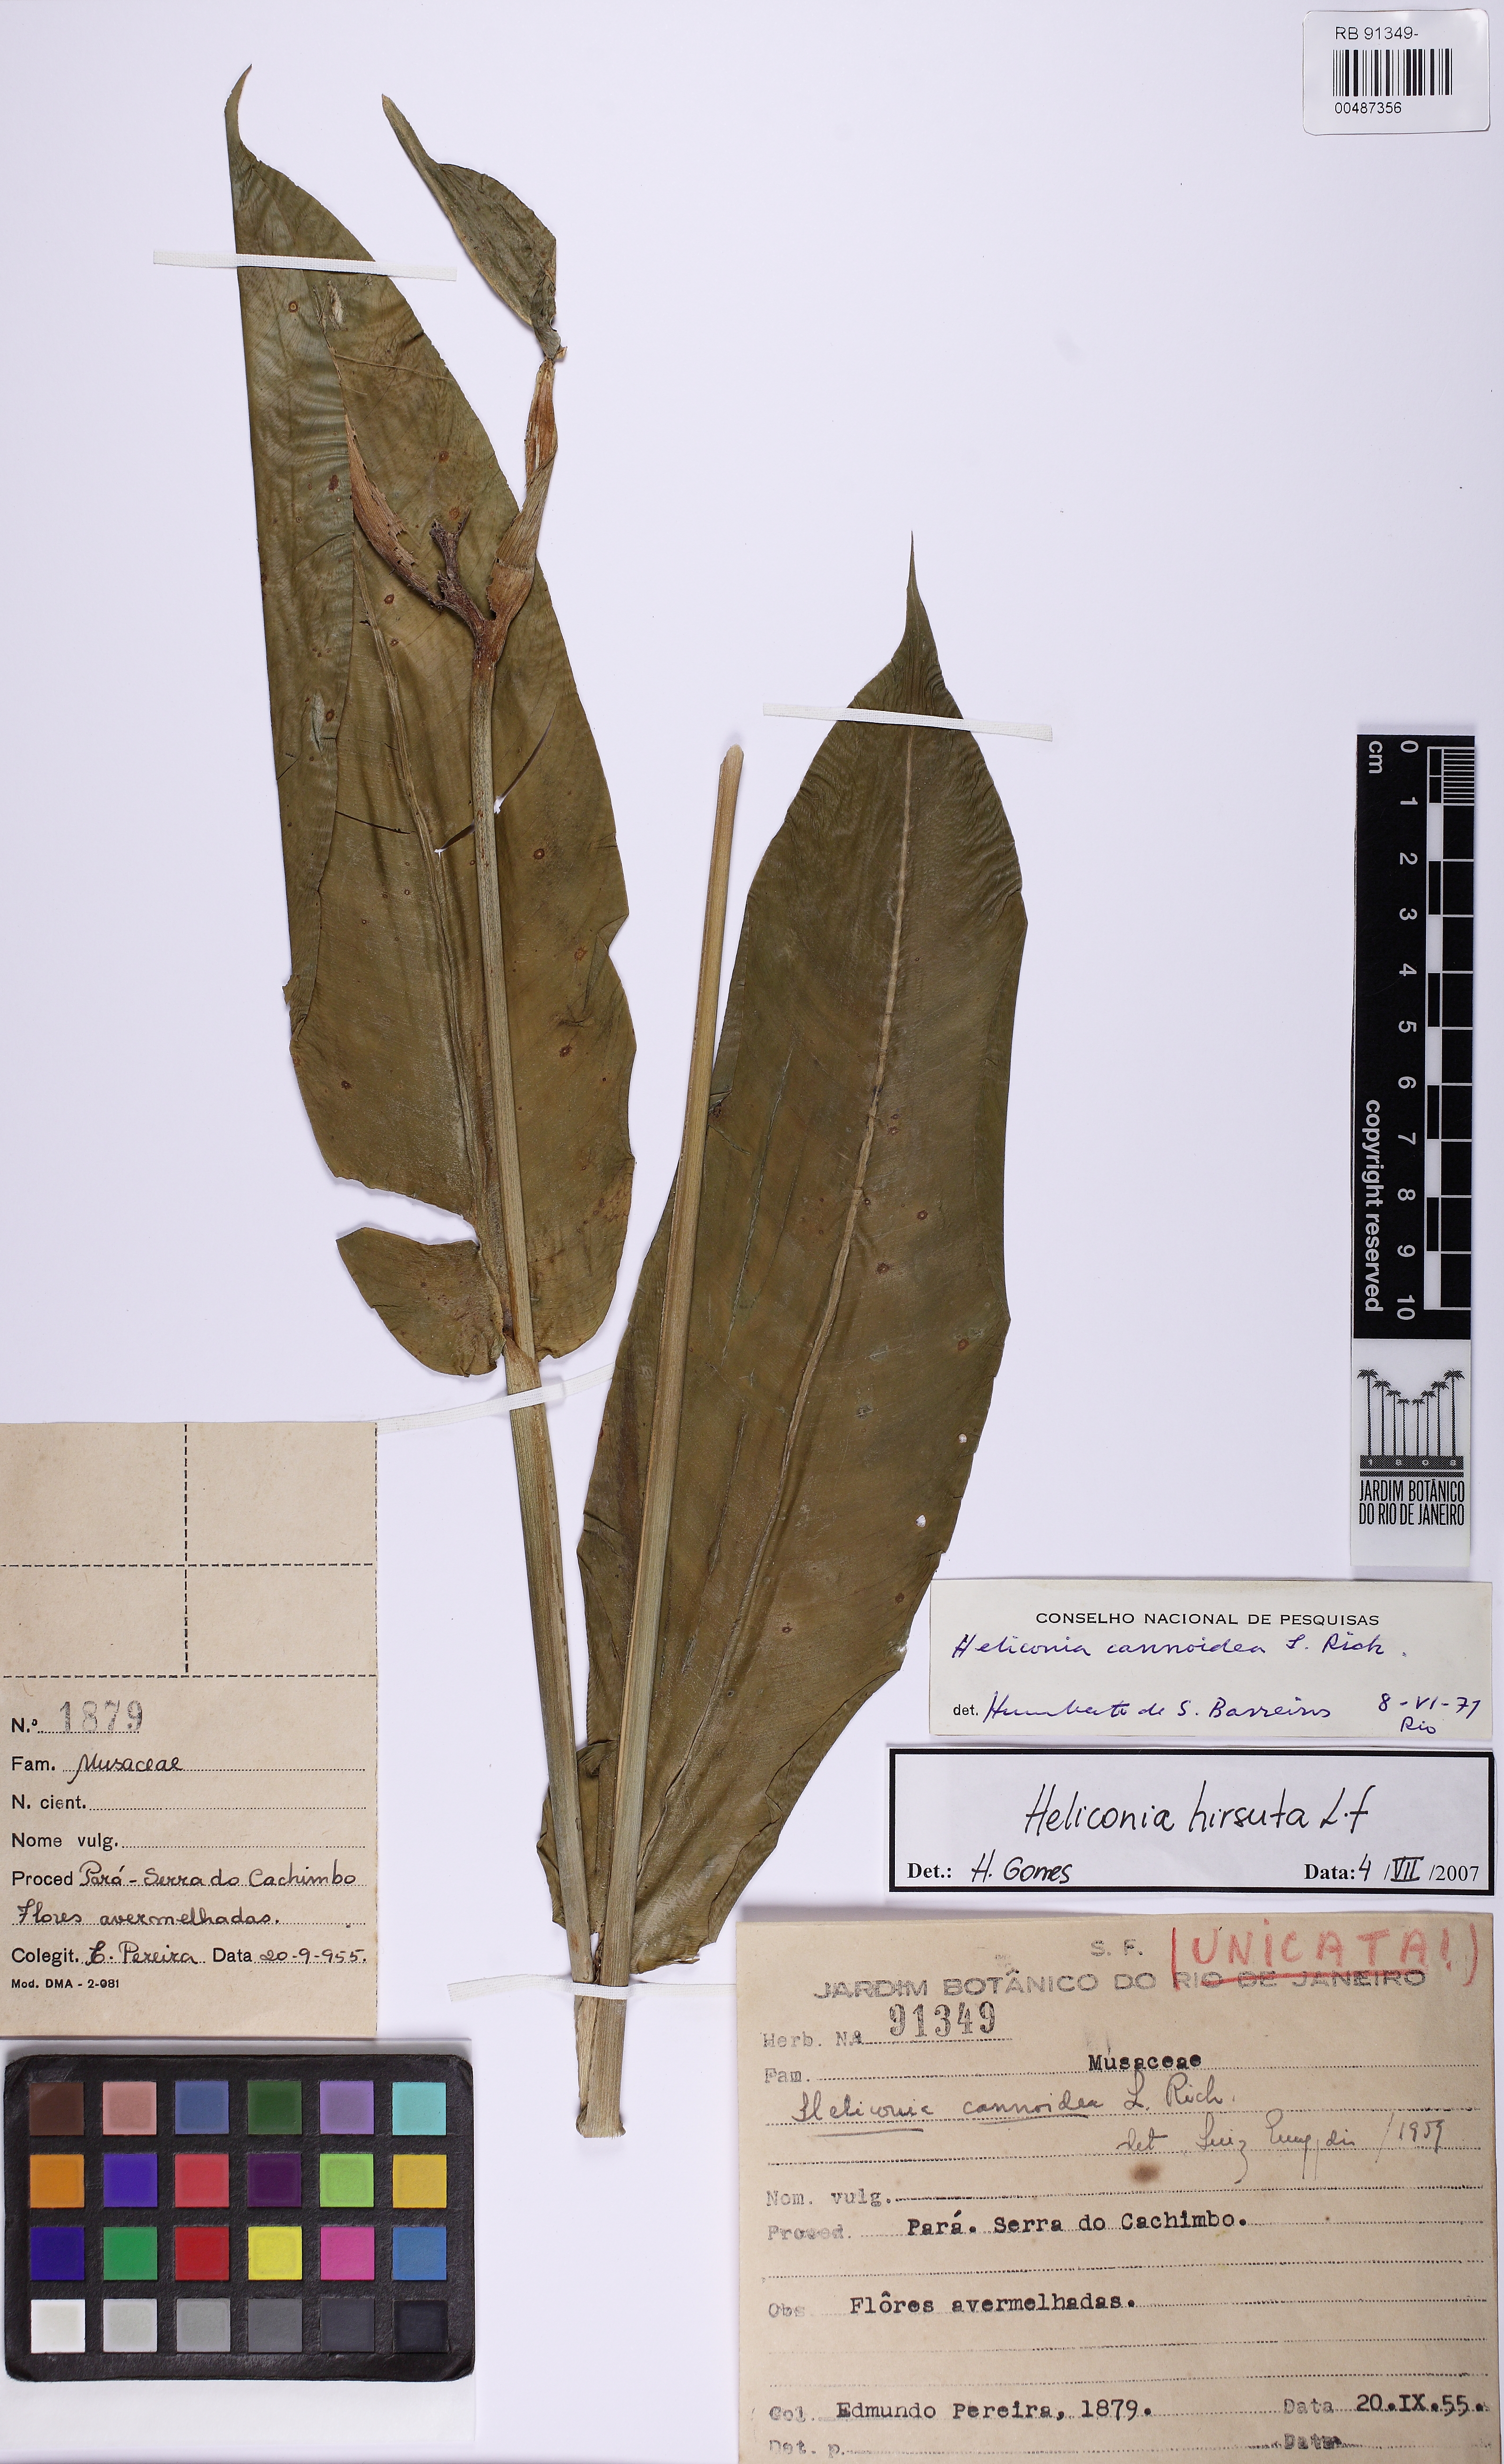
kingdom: Plantae
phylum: Tracheophyta
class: Liliopsida
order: Zingiberales
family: Heliconiaceae
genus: Heliconia
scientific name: Heliconia hirsuta
